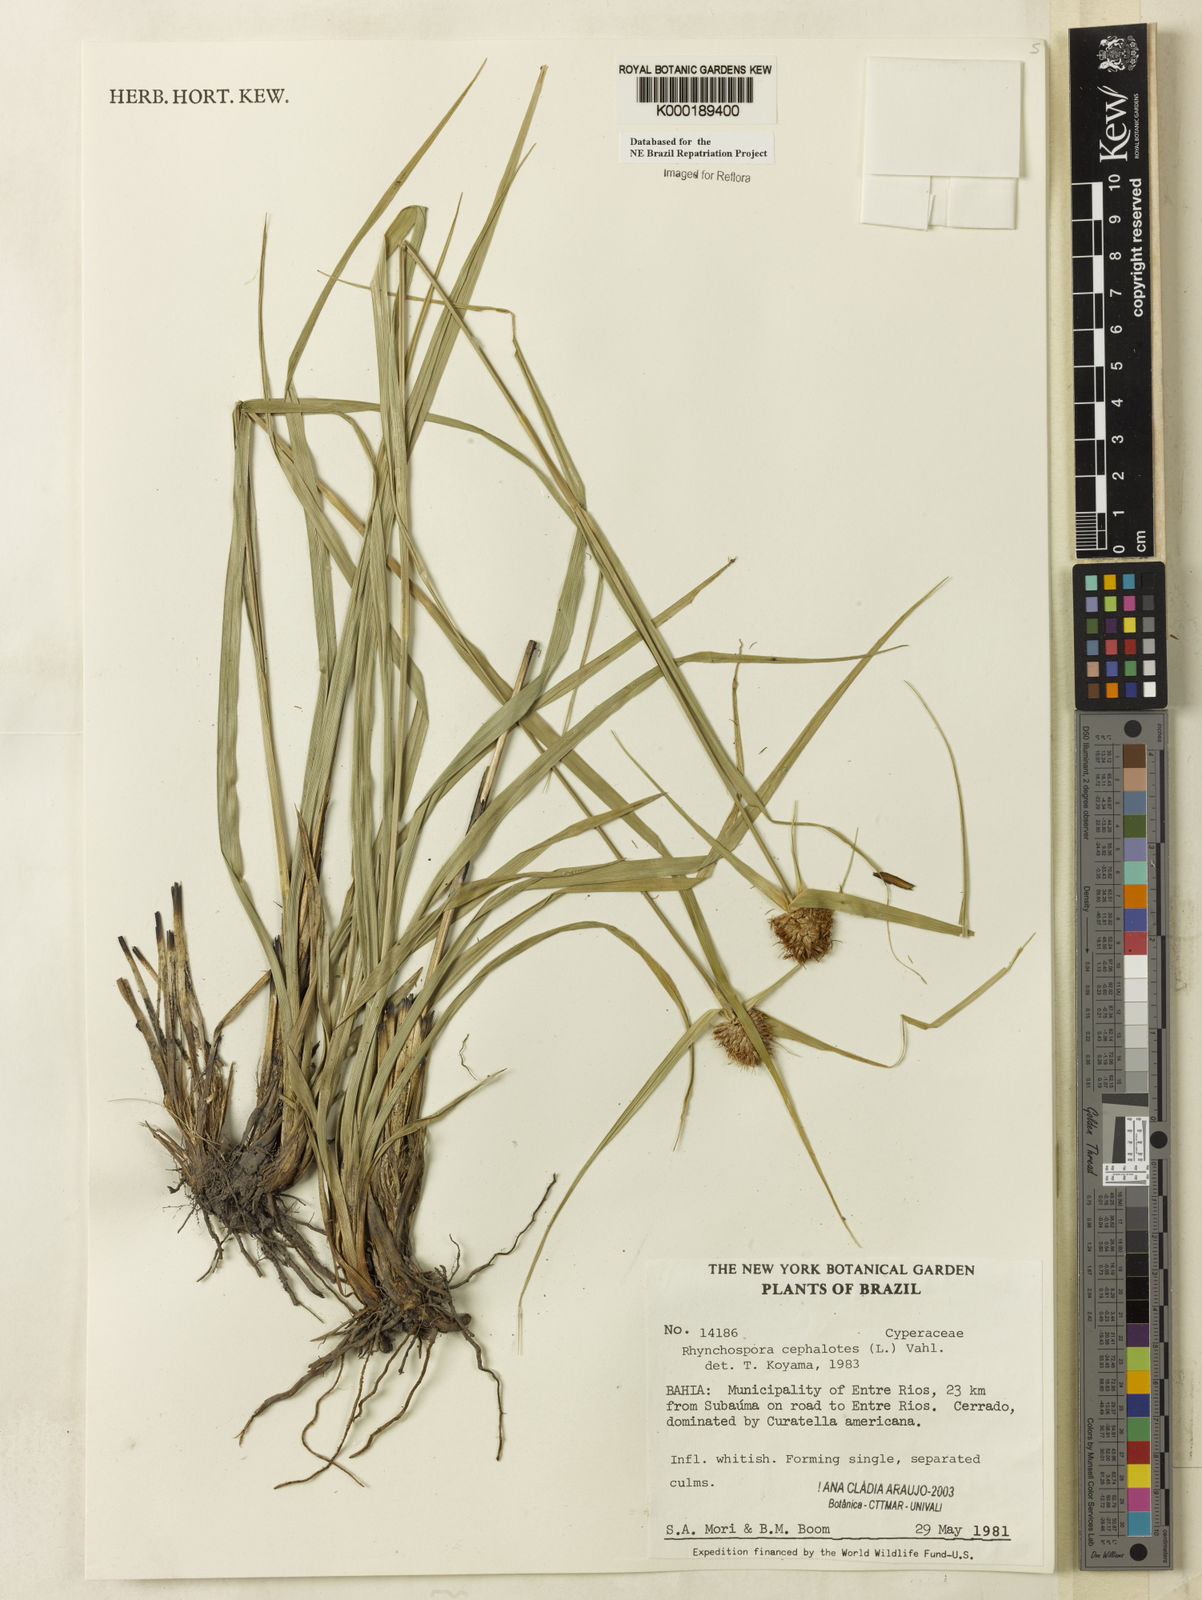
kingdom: Plantae
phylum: Tracheophyta
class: Liliopsida
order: Poales
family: Cyperaceae
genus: Rhynchospora
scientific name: Rhynchospora cephalotes
